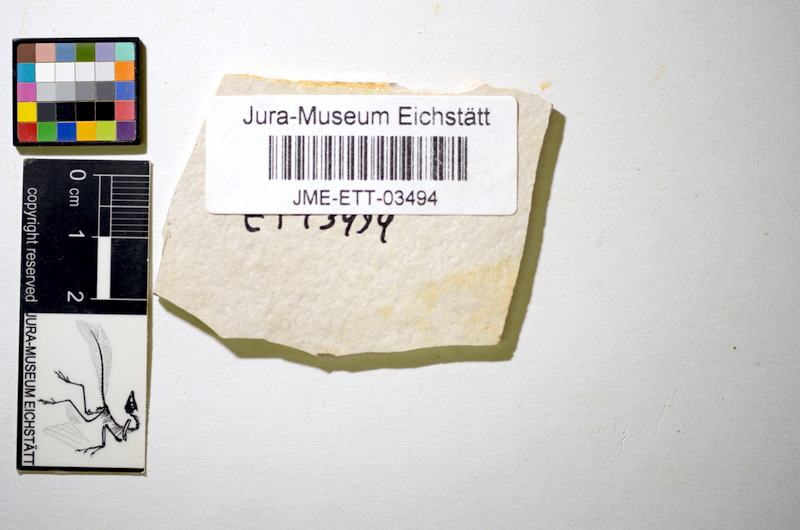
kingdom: Animalia
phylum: Chordata
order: Salmoniformes
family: Orthogonikleithridae
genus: Orthogonikleithrus
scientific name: Orthogonikleithrus hoelli
